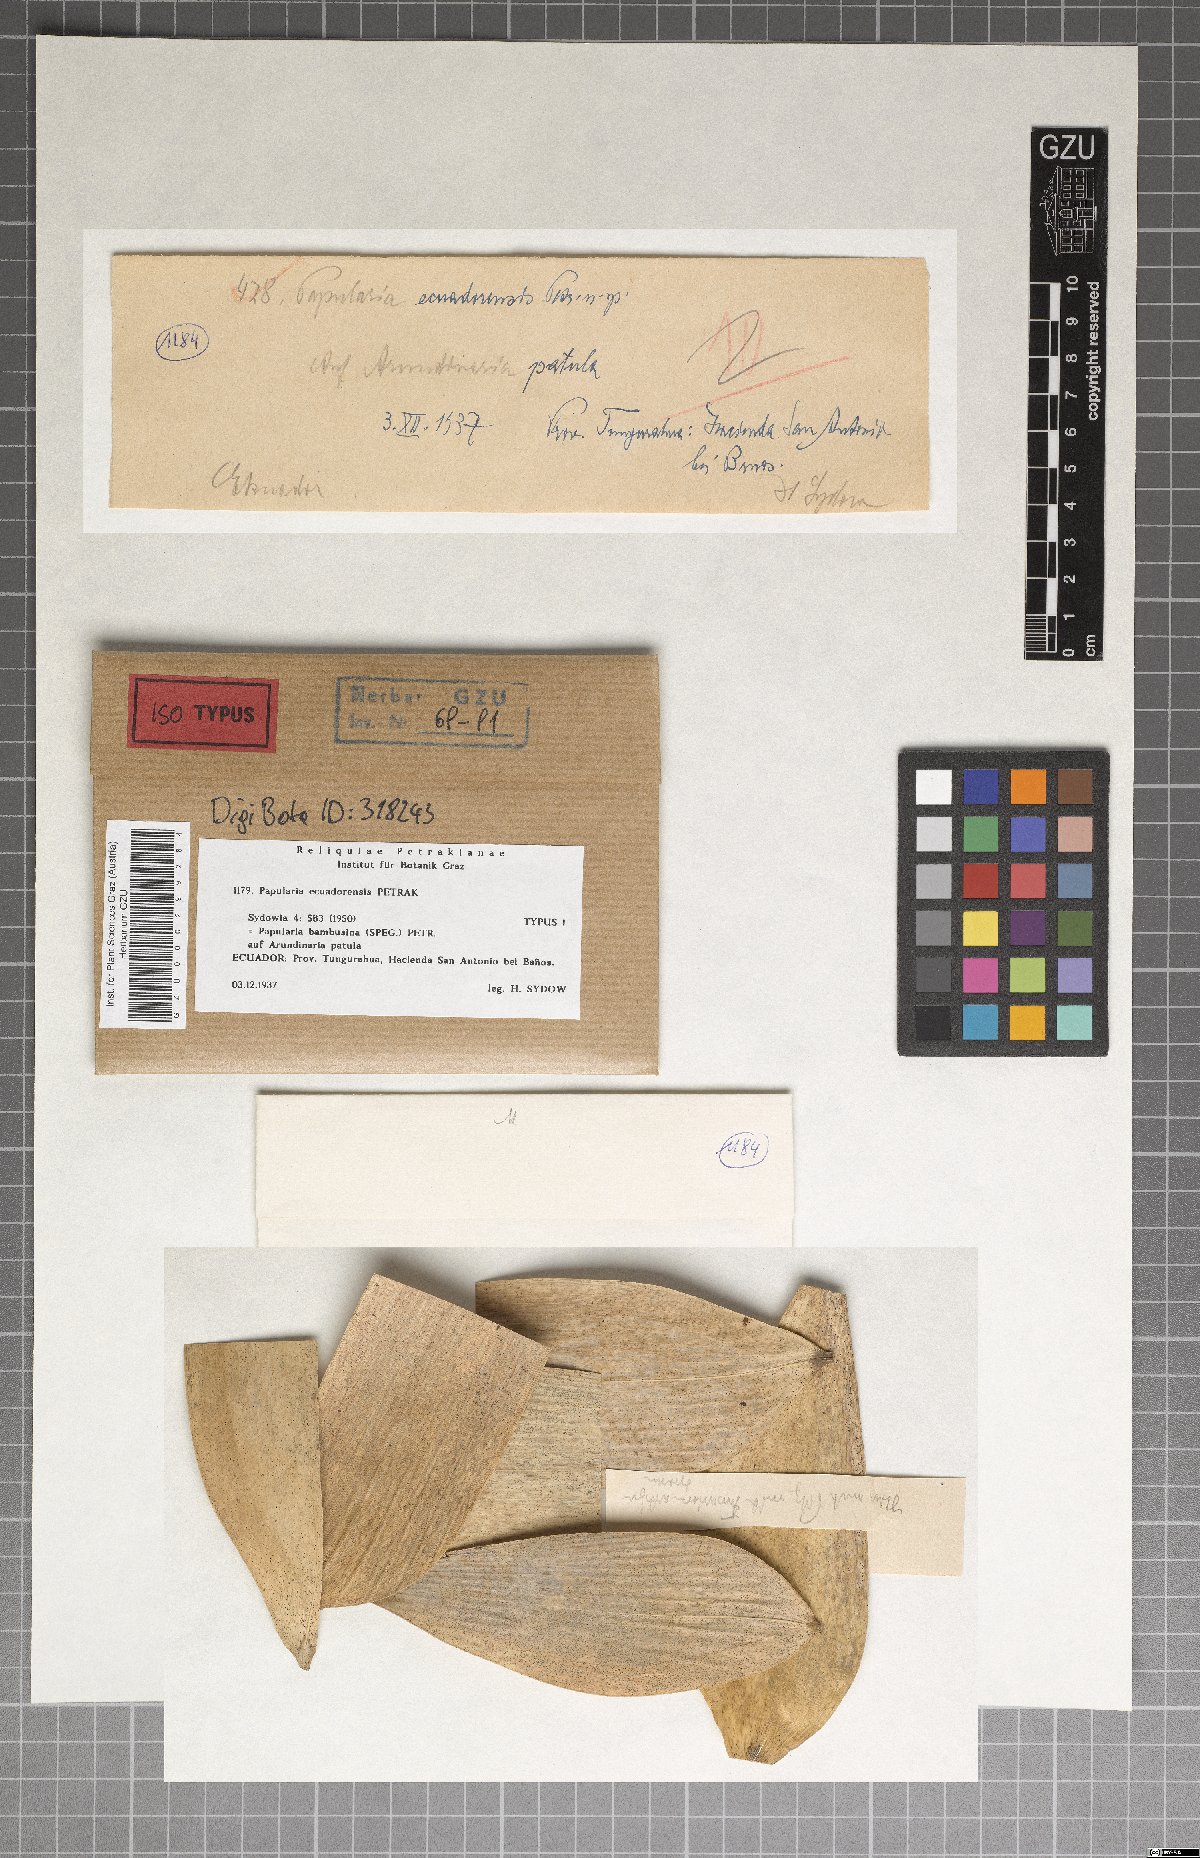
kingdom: Fungi
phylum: Ascomycota
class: Sordariomycetes
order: Xylariales
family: Apiosporaceae
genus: Papularia
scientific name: Papularia ecuadorensis
